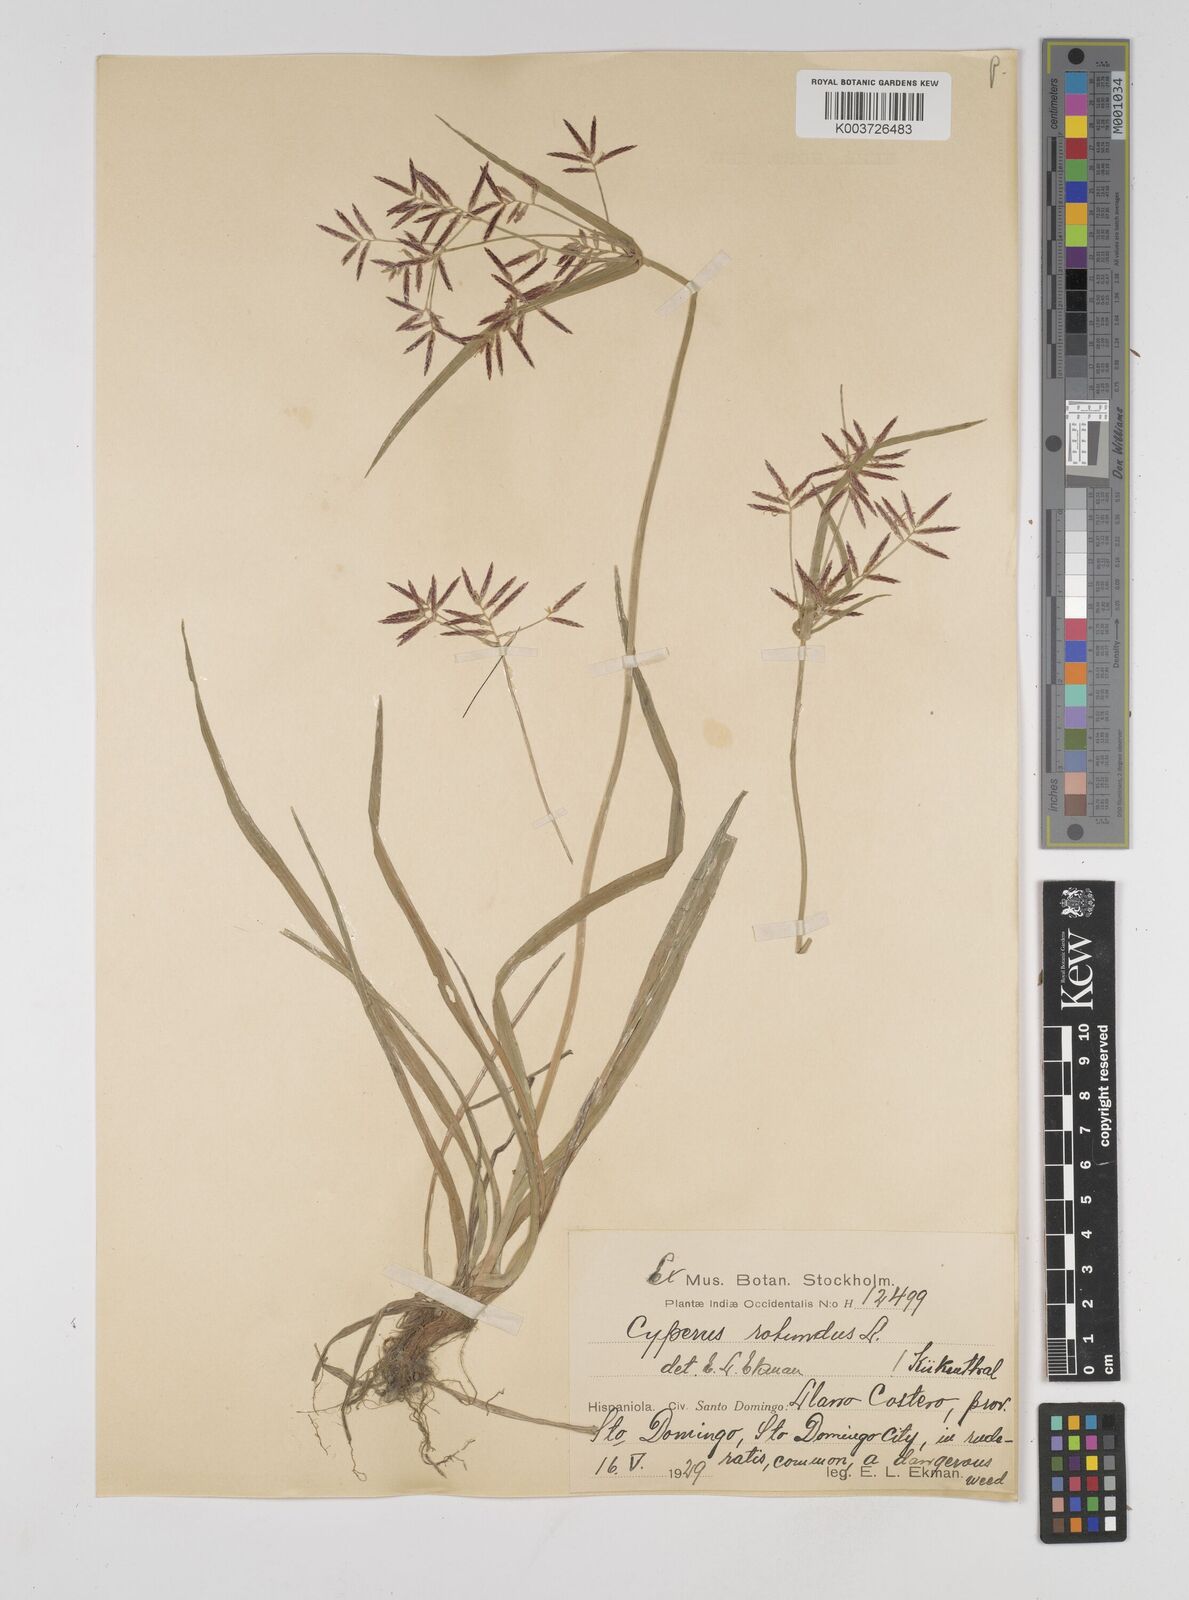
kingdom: Plantae
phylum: Tracheophyta
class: Liliopsida
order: Poales
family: Cyperaceae
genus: Cyperus
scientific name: Cyperus rotundus
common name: Nutgrass
